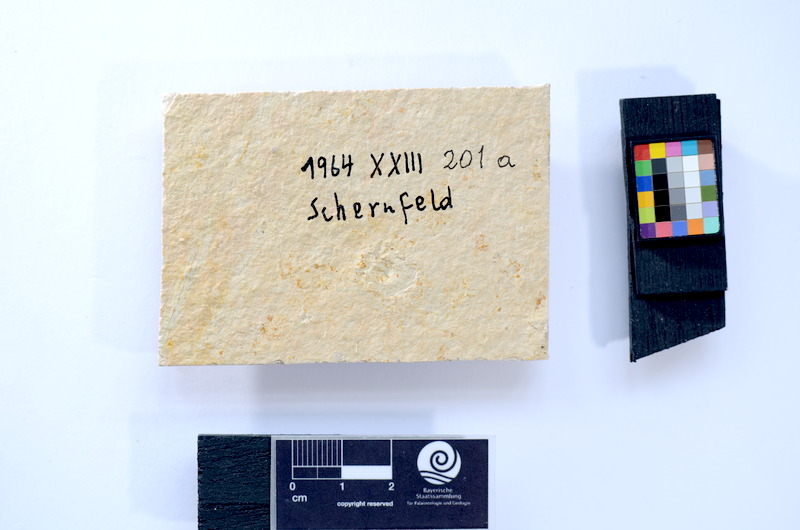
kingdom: Animalia
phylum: Chordata
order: Salmoniformes
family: Orthogonikleithridae
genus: Leptolepides
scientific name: Leptolepides sprattiformis
